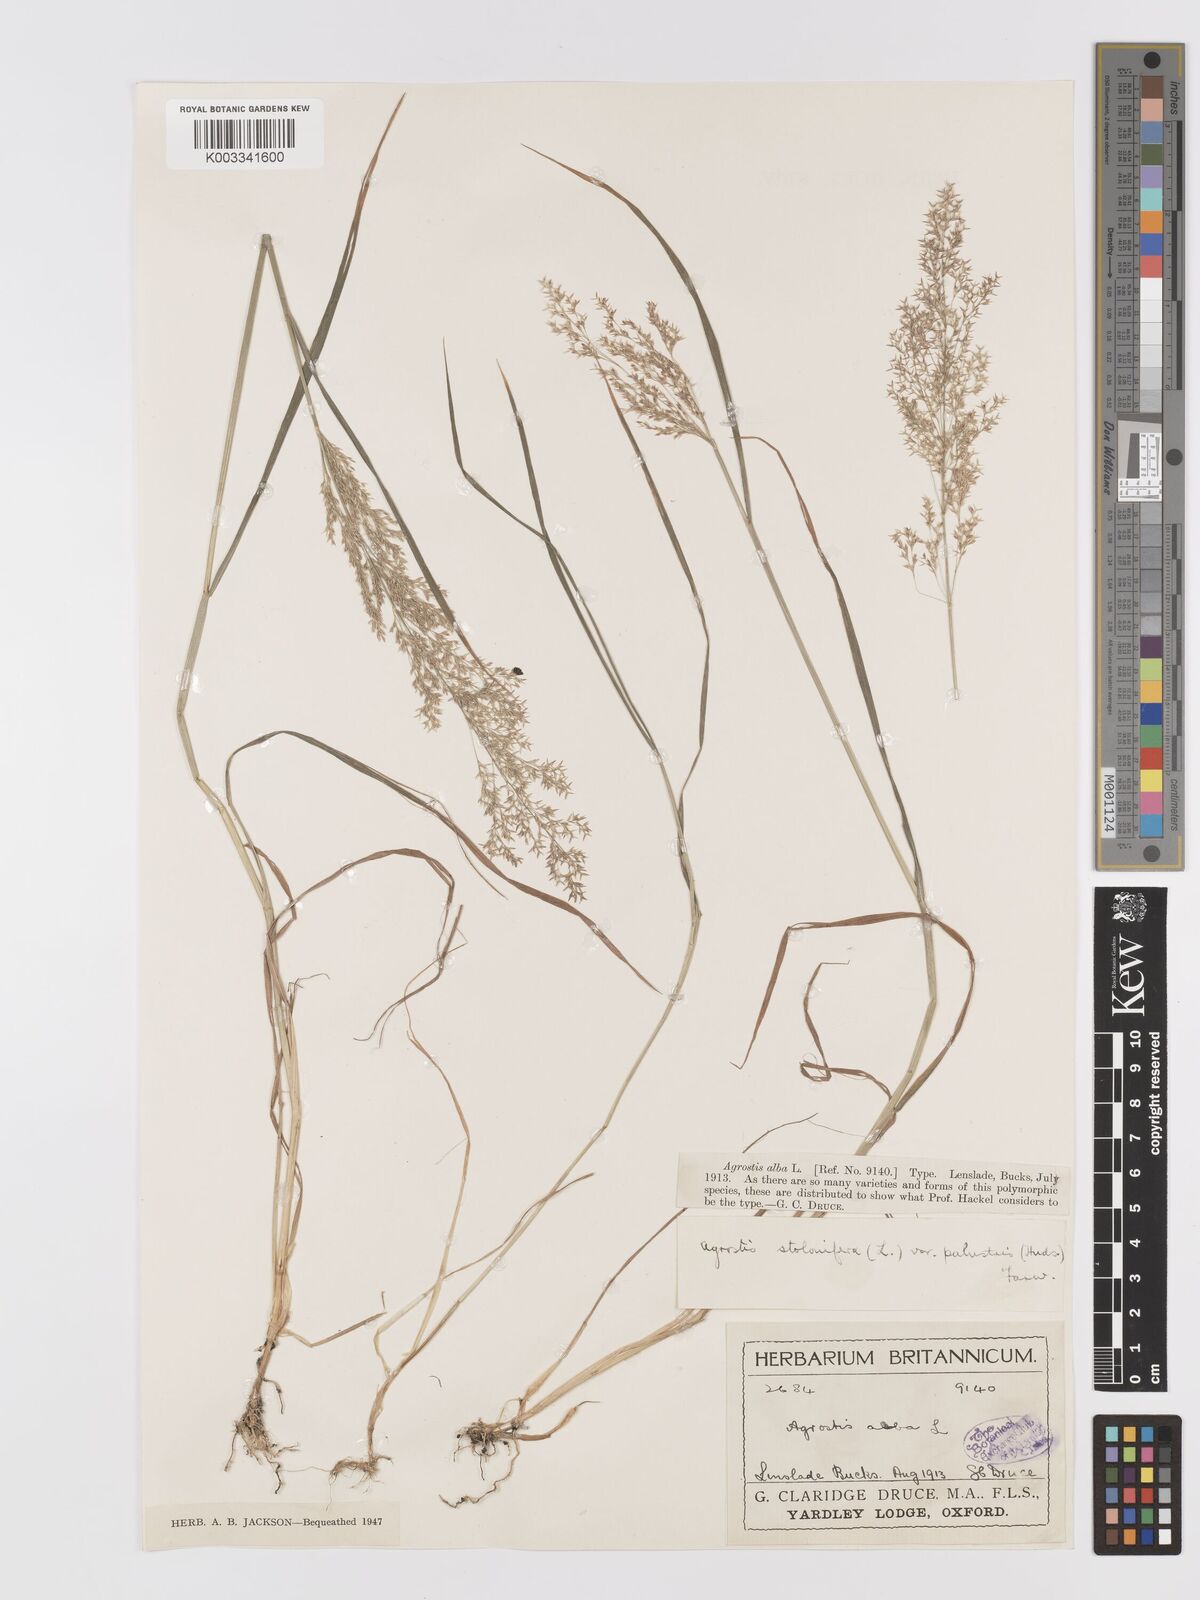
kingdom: Plantae
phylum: Tracheophyta
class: Liliopsida
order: Poales
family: Poaceae
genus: Agrostis
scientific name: Agrostis stolonifera
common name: Creeping bentgrass
